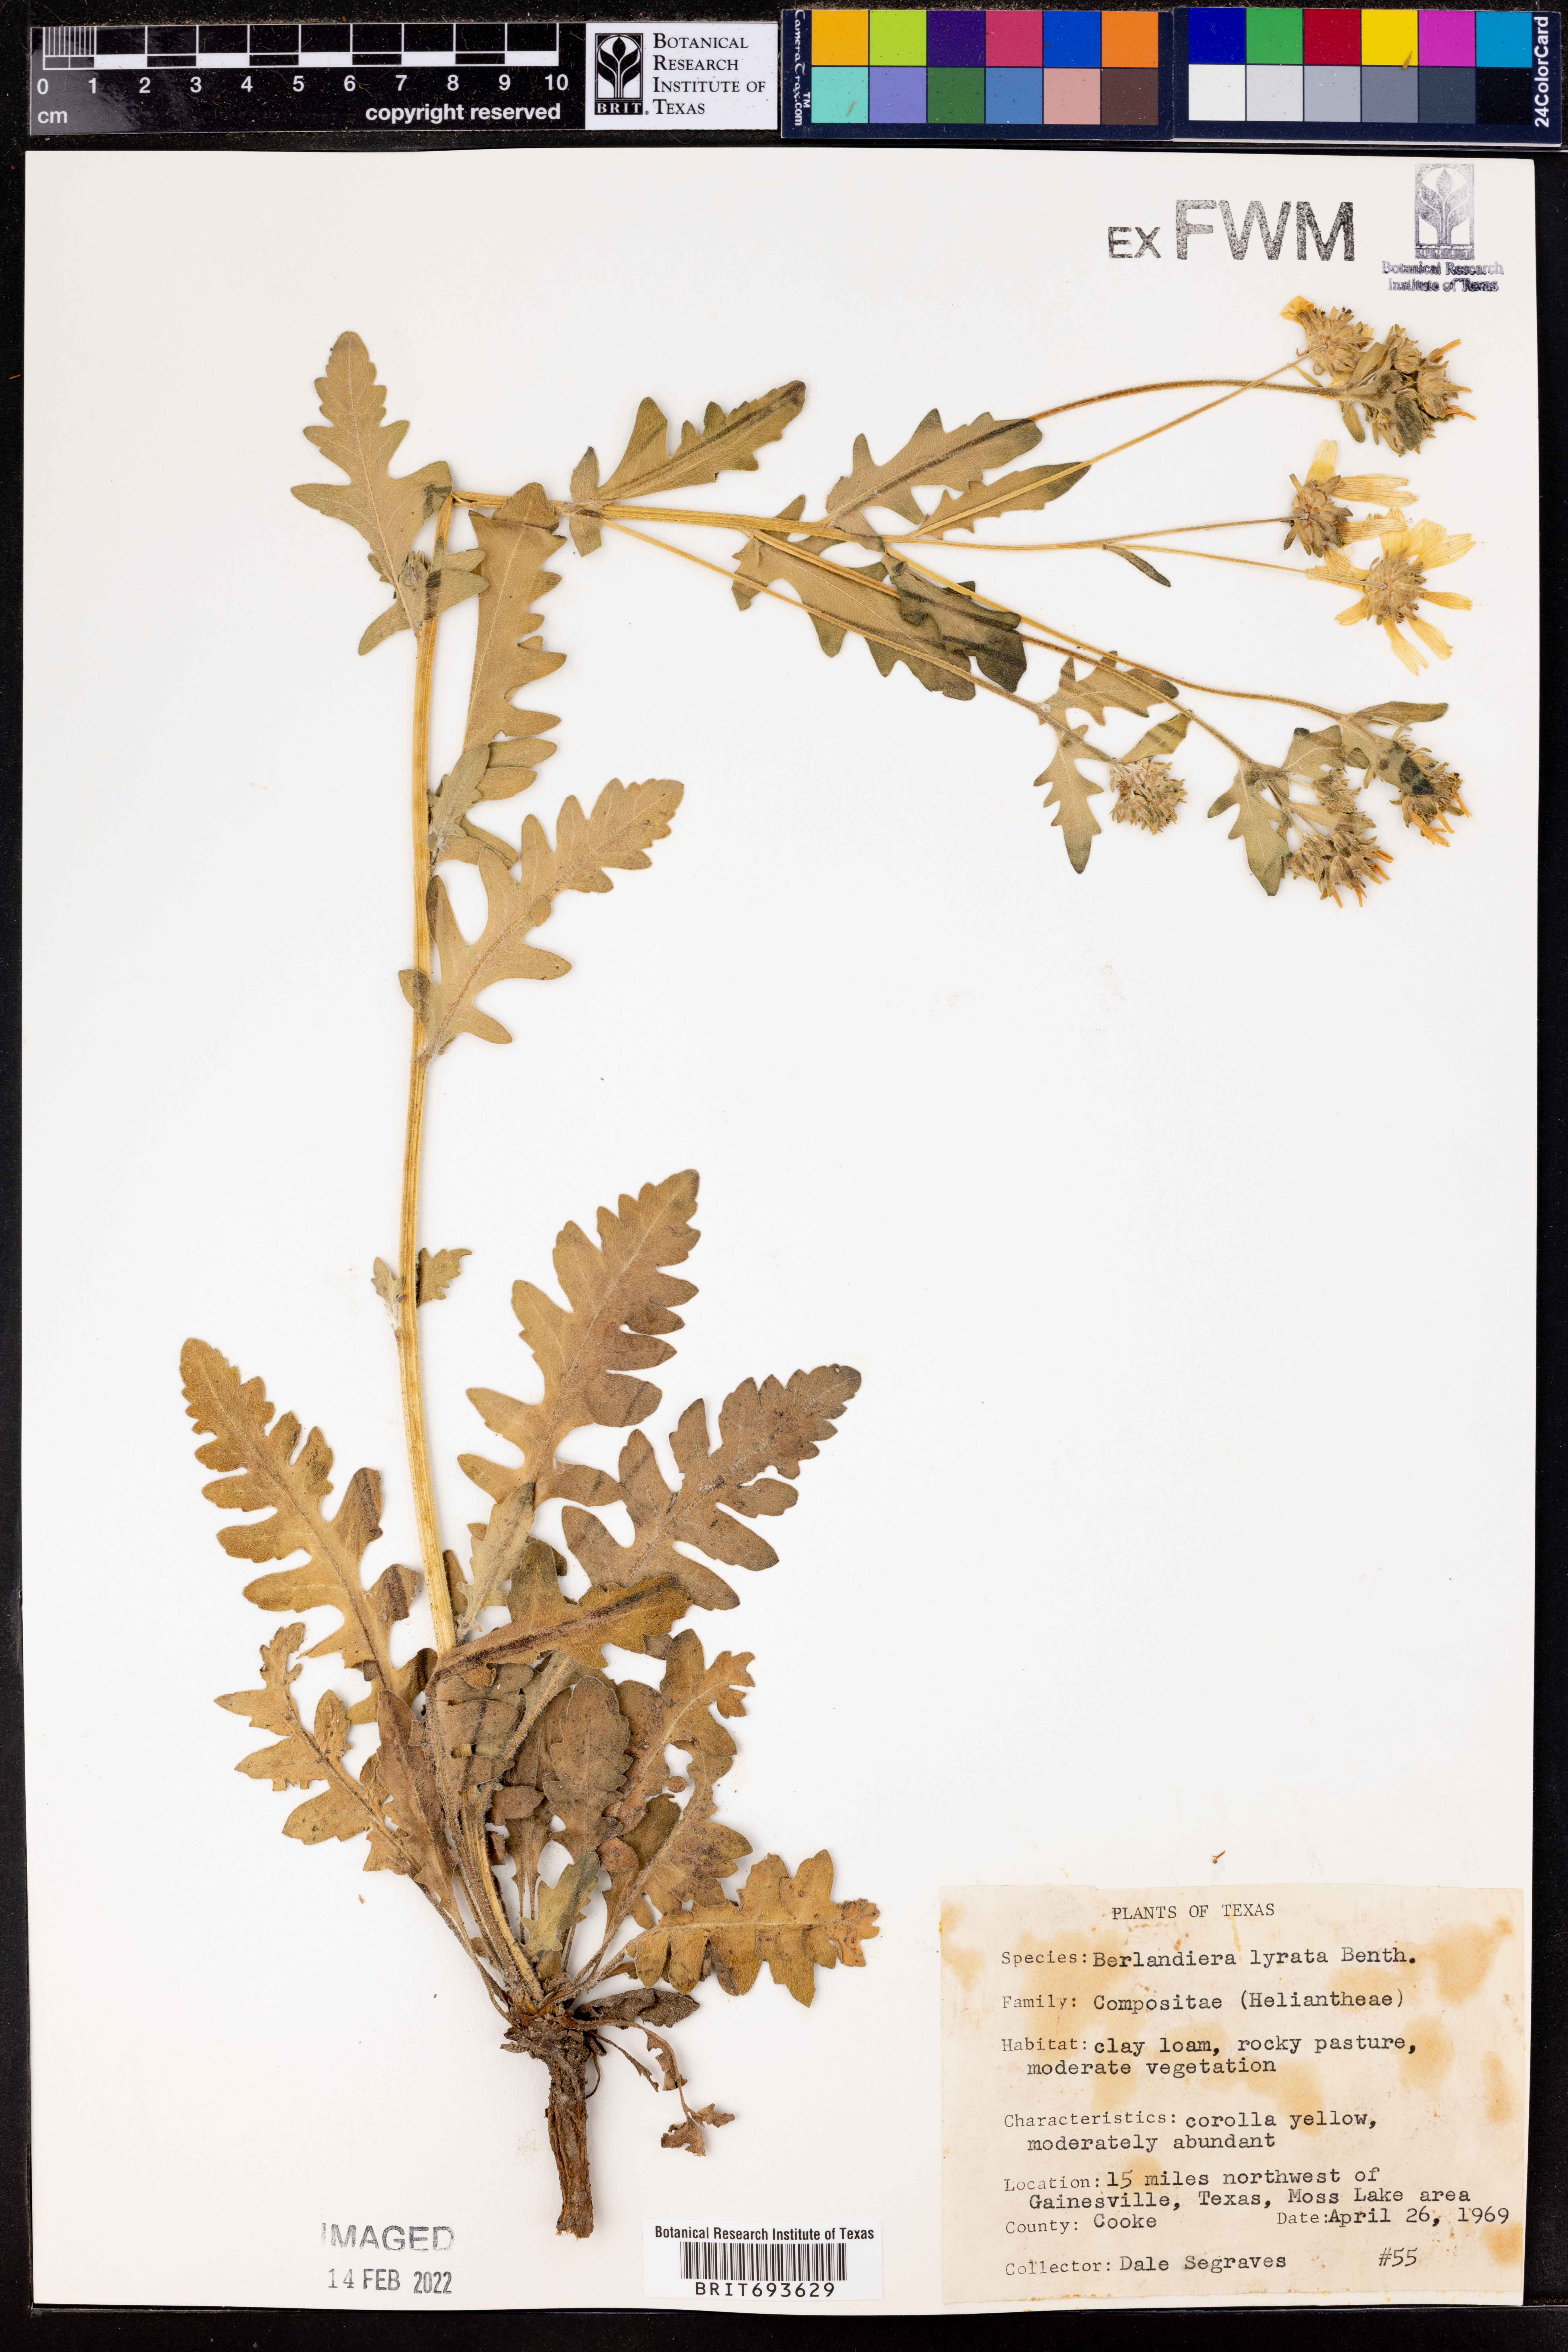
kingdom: Plantae
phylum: Tracheophyta
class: Magnoliopsida
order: Asterales
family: Asteraceae
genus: Berlandiera
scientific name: Berlandiera lyrata
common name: Chocolate-flower
